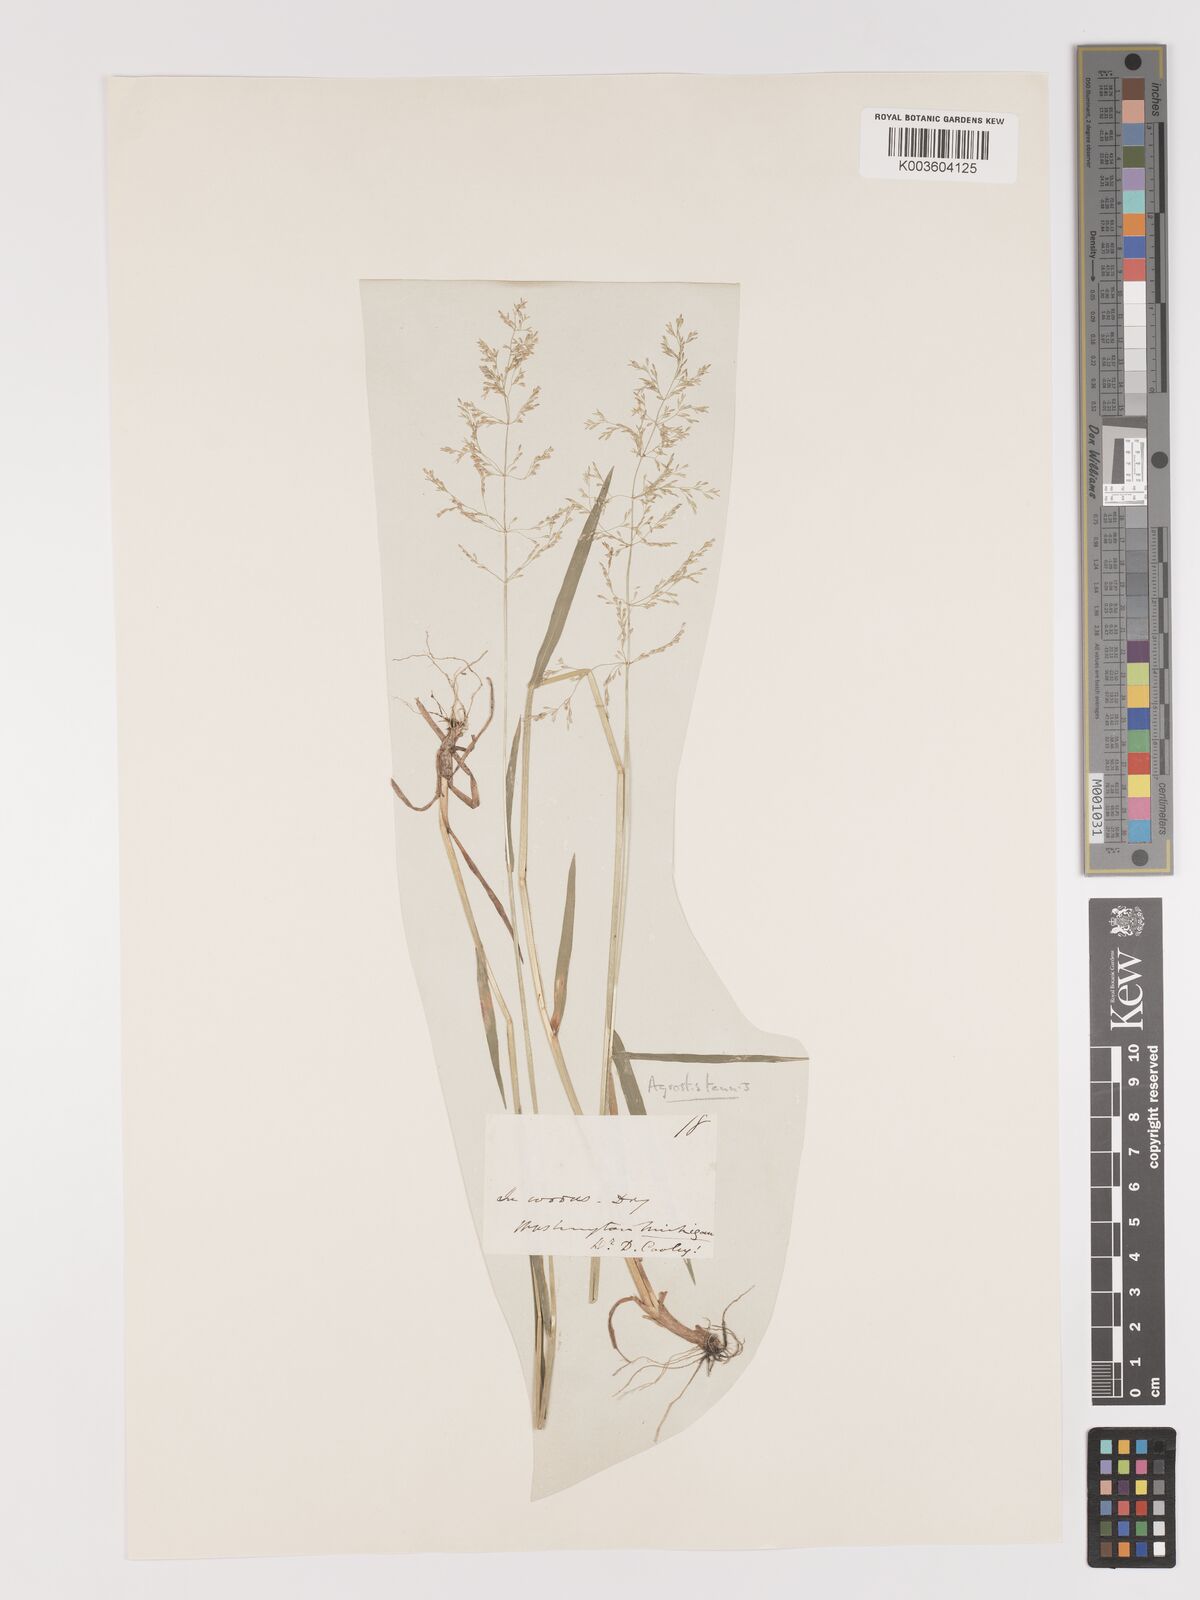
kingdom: Plantae
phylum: Tracheophyta
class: Liliopsida
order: Poales
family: Poaceae
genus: Agrostis
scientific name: Agrostis capillaris
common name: Colonial bentgrass
